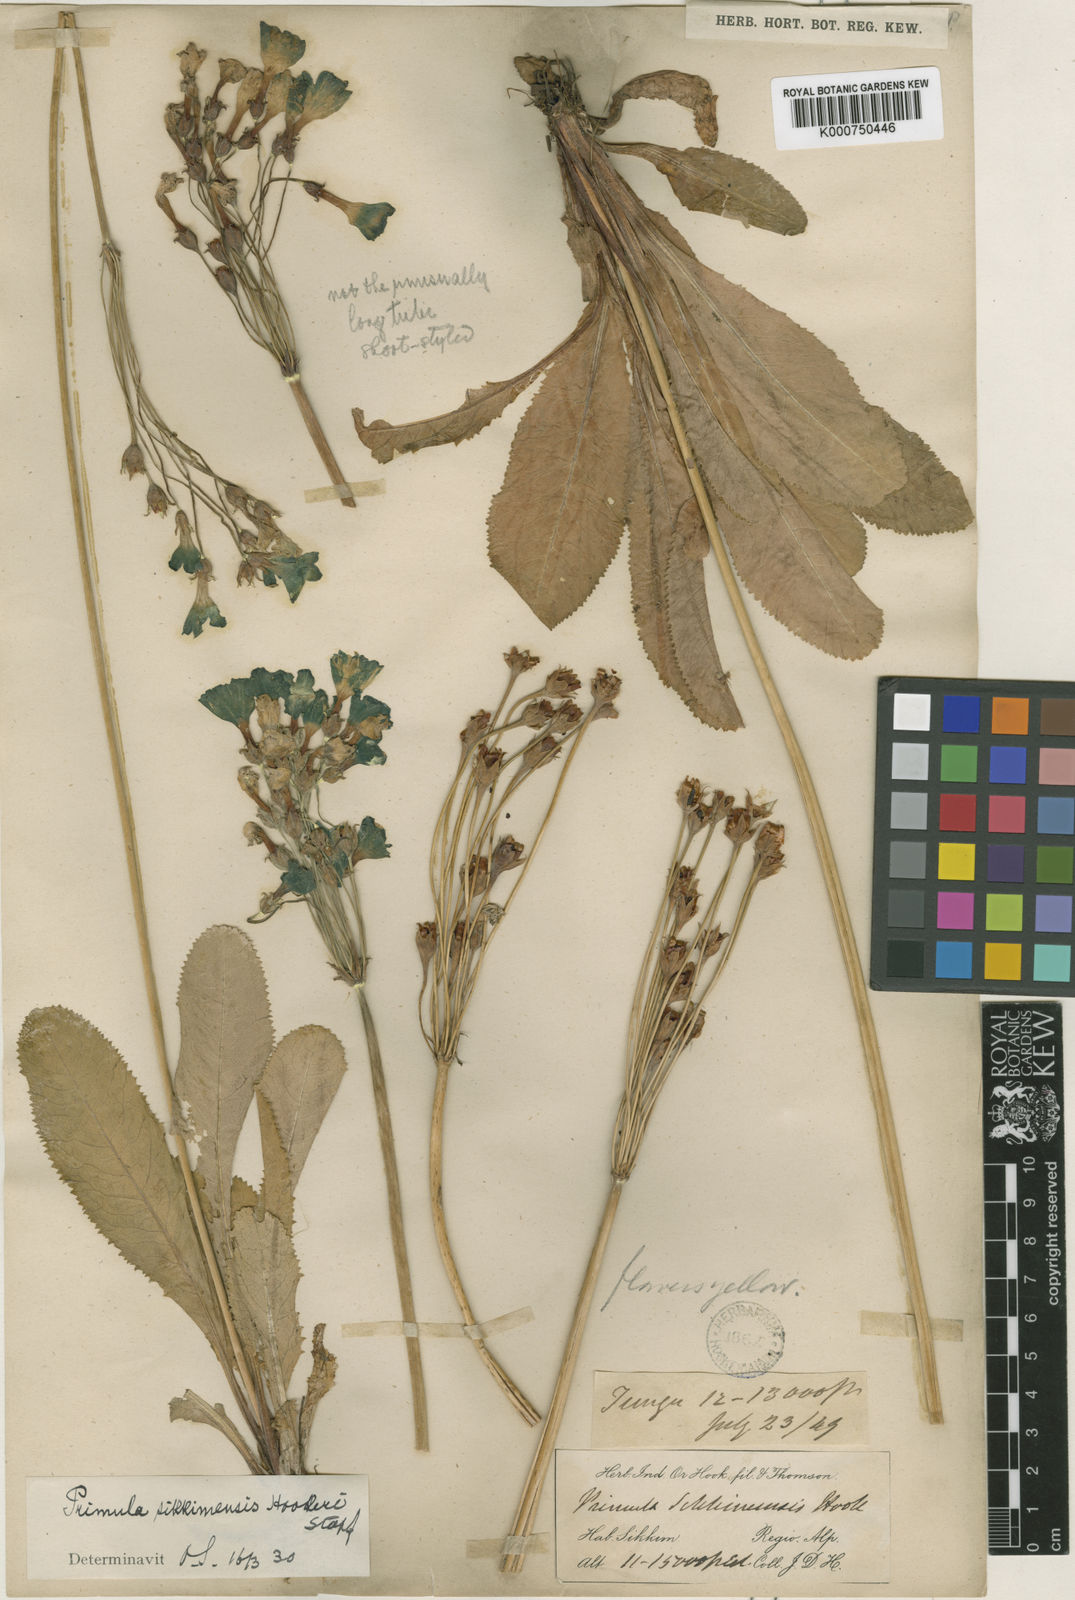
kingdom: Plantae
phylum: Tracheophyta
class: Magnoliopsida
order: Ericales
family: Primulaceae
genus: Primula
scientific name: Primula sikkimensis
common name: Sikkim cowslip
